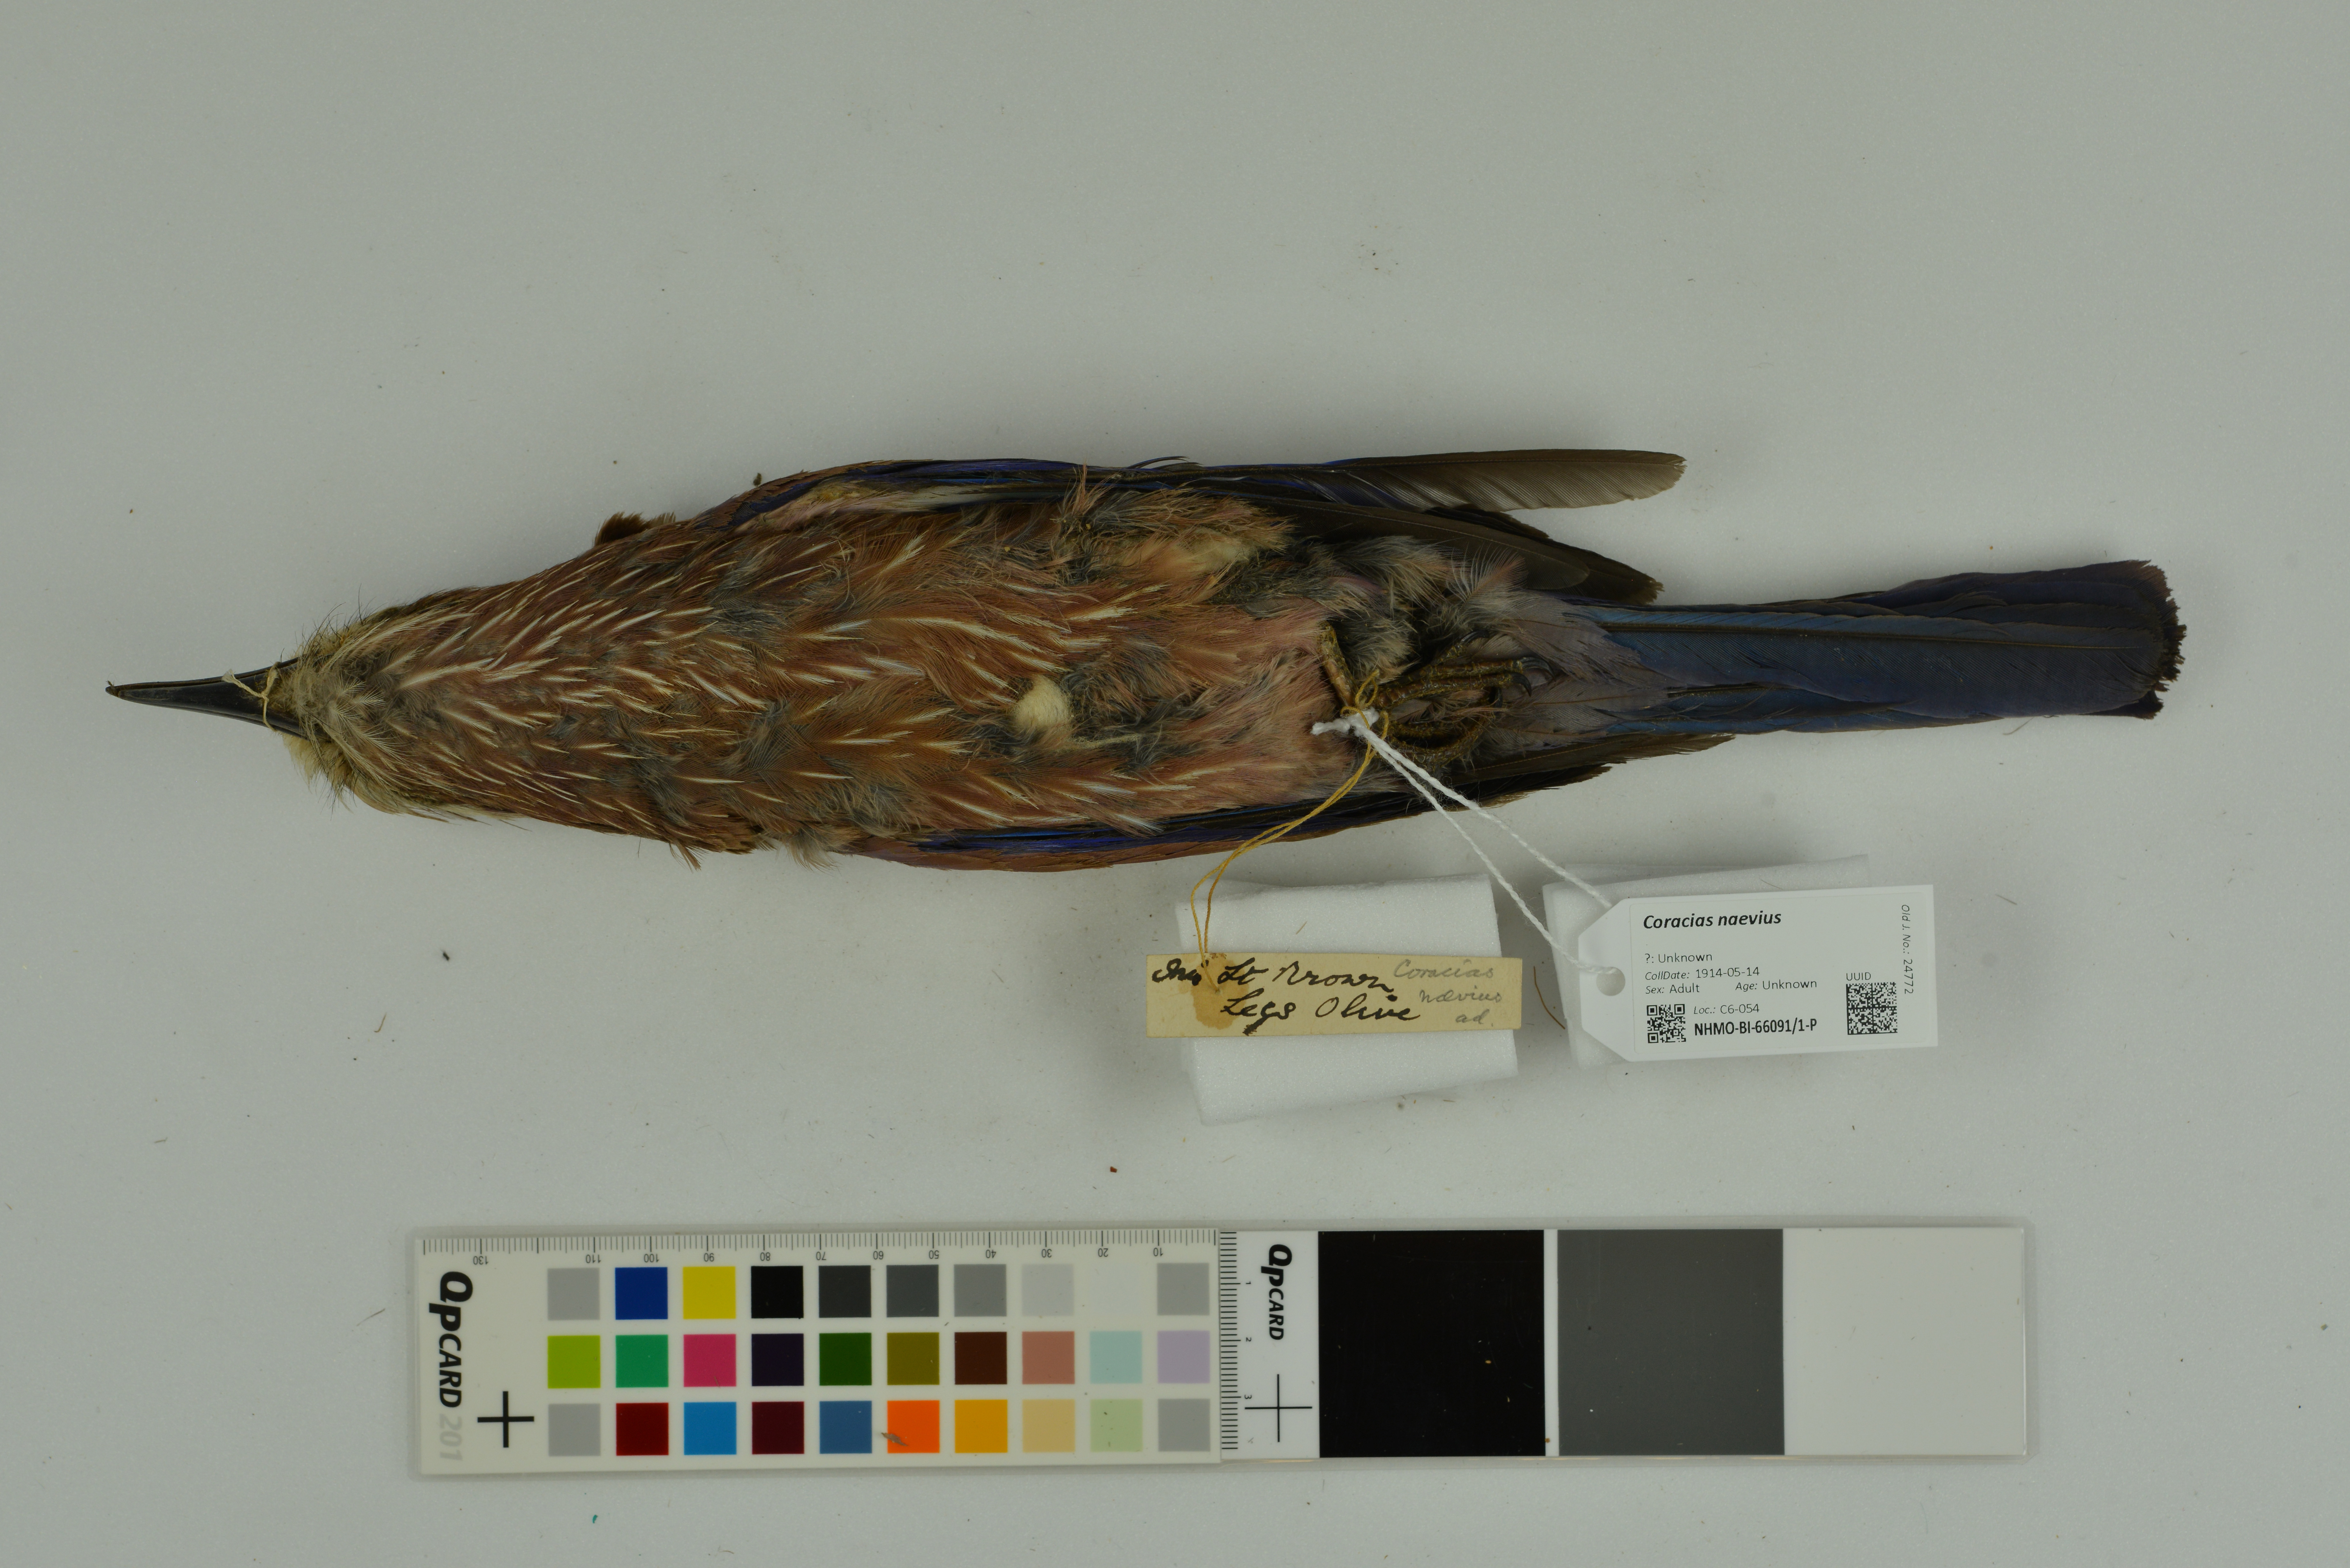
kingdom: Animalia
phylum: Chordata
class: Aves
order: Coraciiformes
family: Coraciidae
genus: Coracias
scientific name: Coracias naevius
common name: Purple roller
